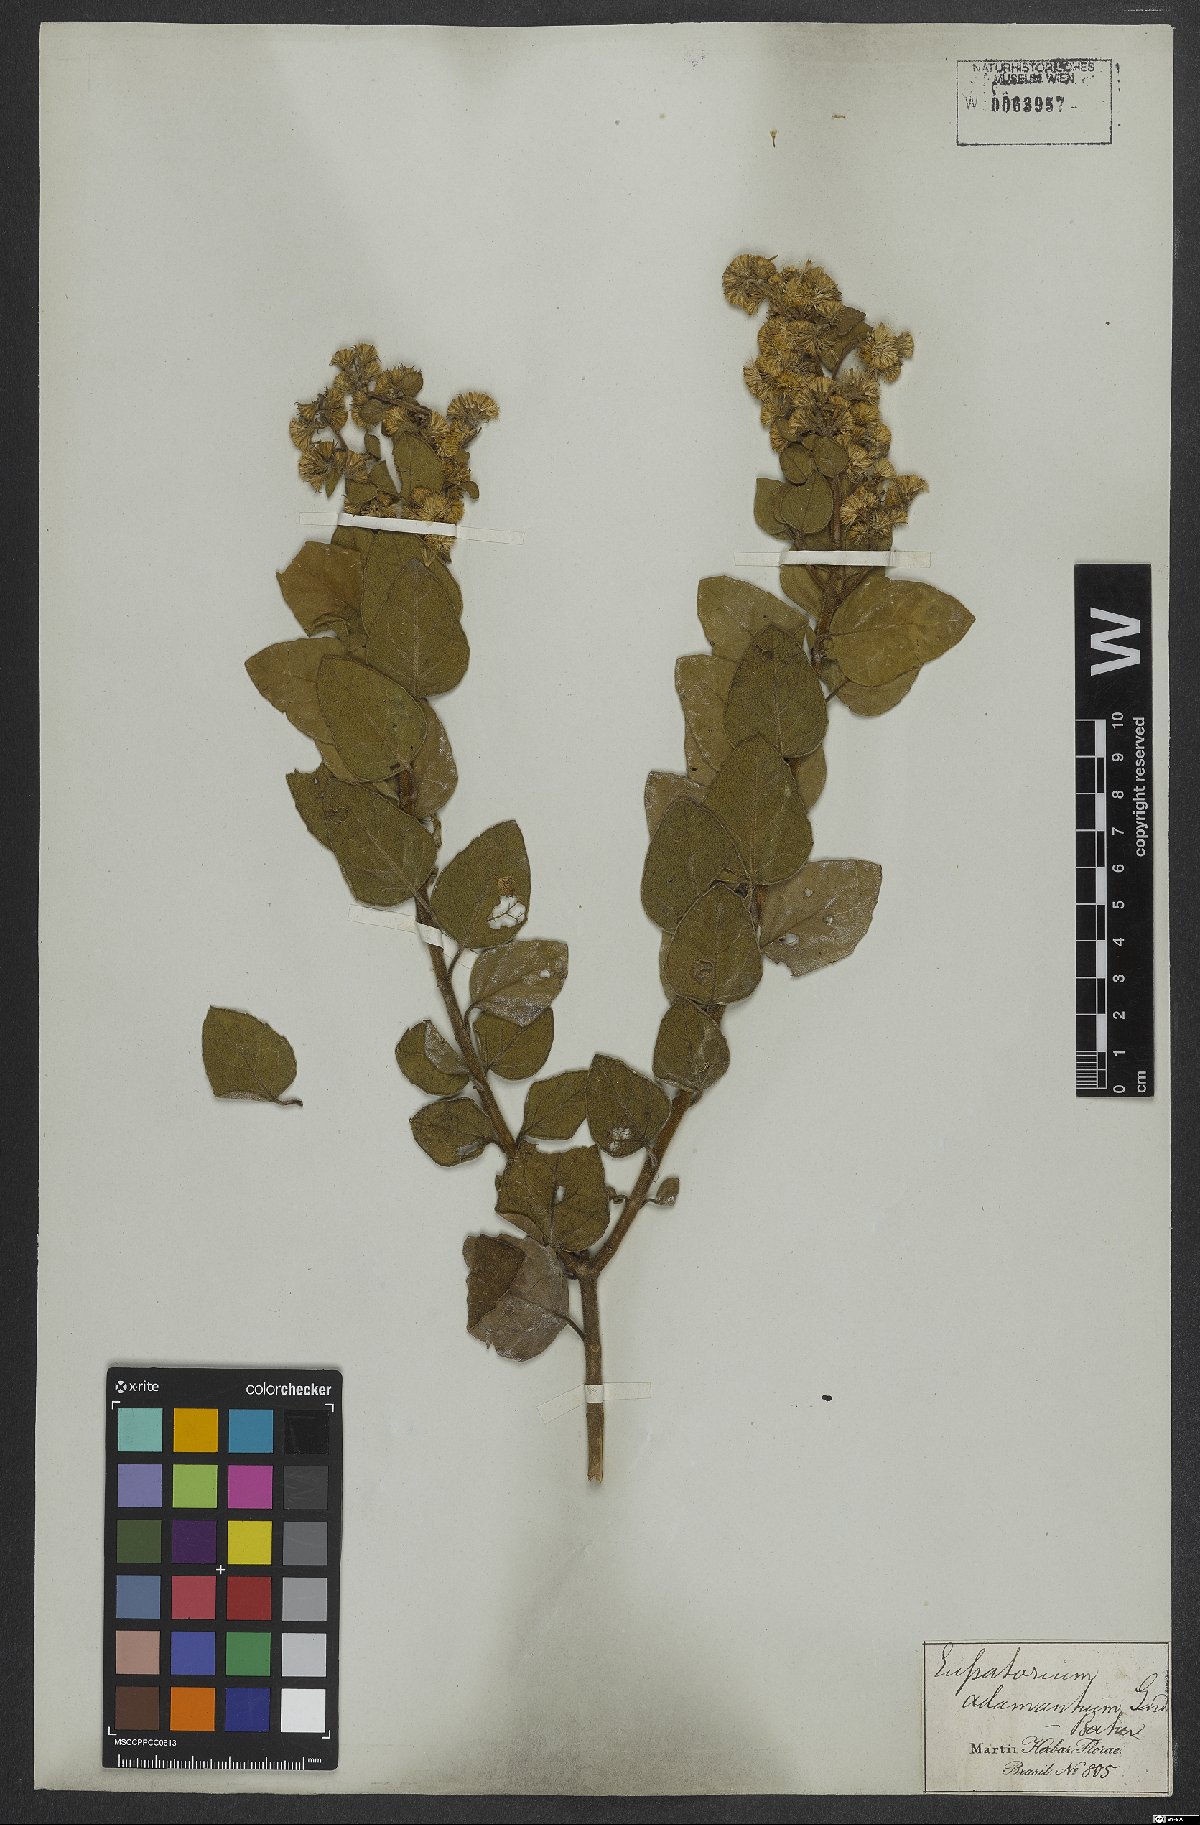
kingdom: Plantae
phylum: Tracheophyta
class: Magnoliopsida
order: Asterales
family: Asteraceae
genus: Trichogoniopsis
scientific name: Trichogoniopsis adenantha
